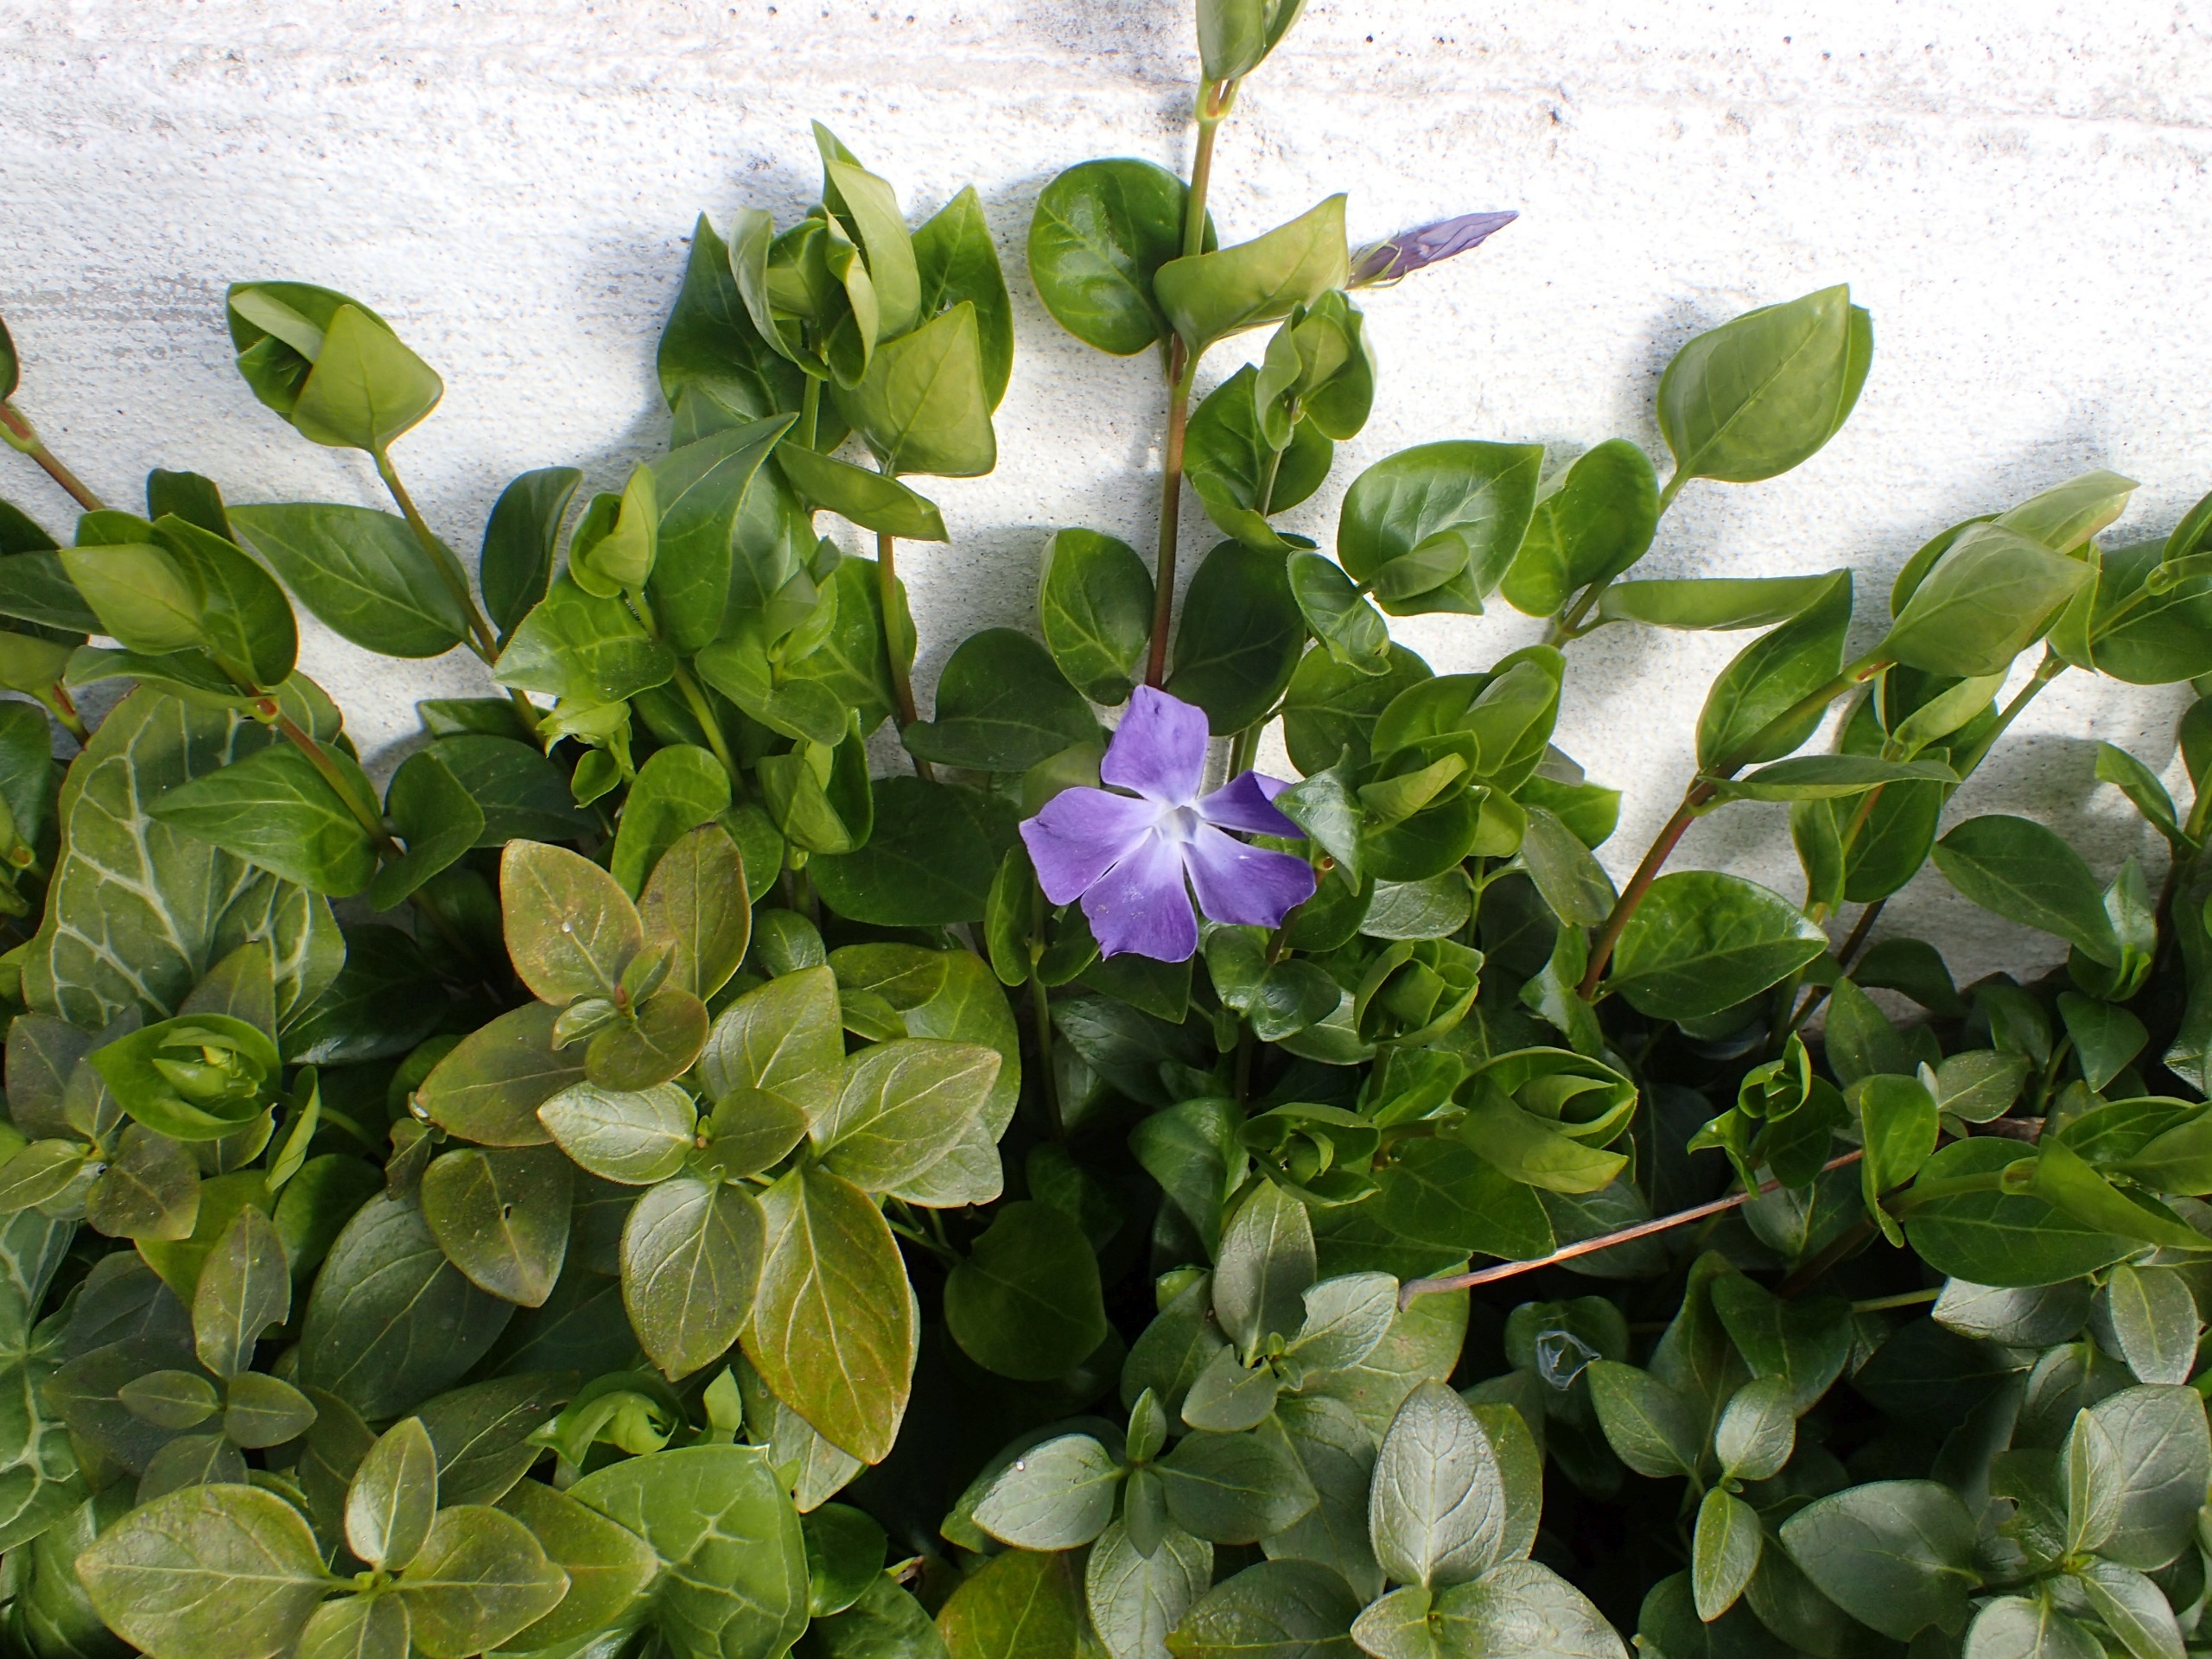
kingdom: Plantae
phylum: Tracheophyta
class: Magnoliopsida
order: Gentianales
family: Apocynaceae
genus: Vinca
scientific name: Vinca major
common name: Stor singrøn
